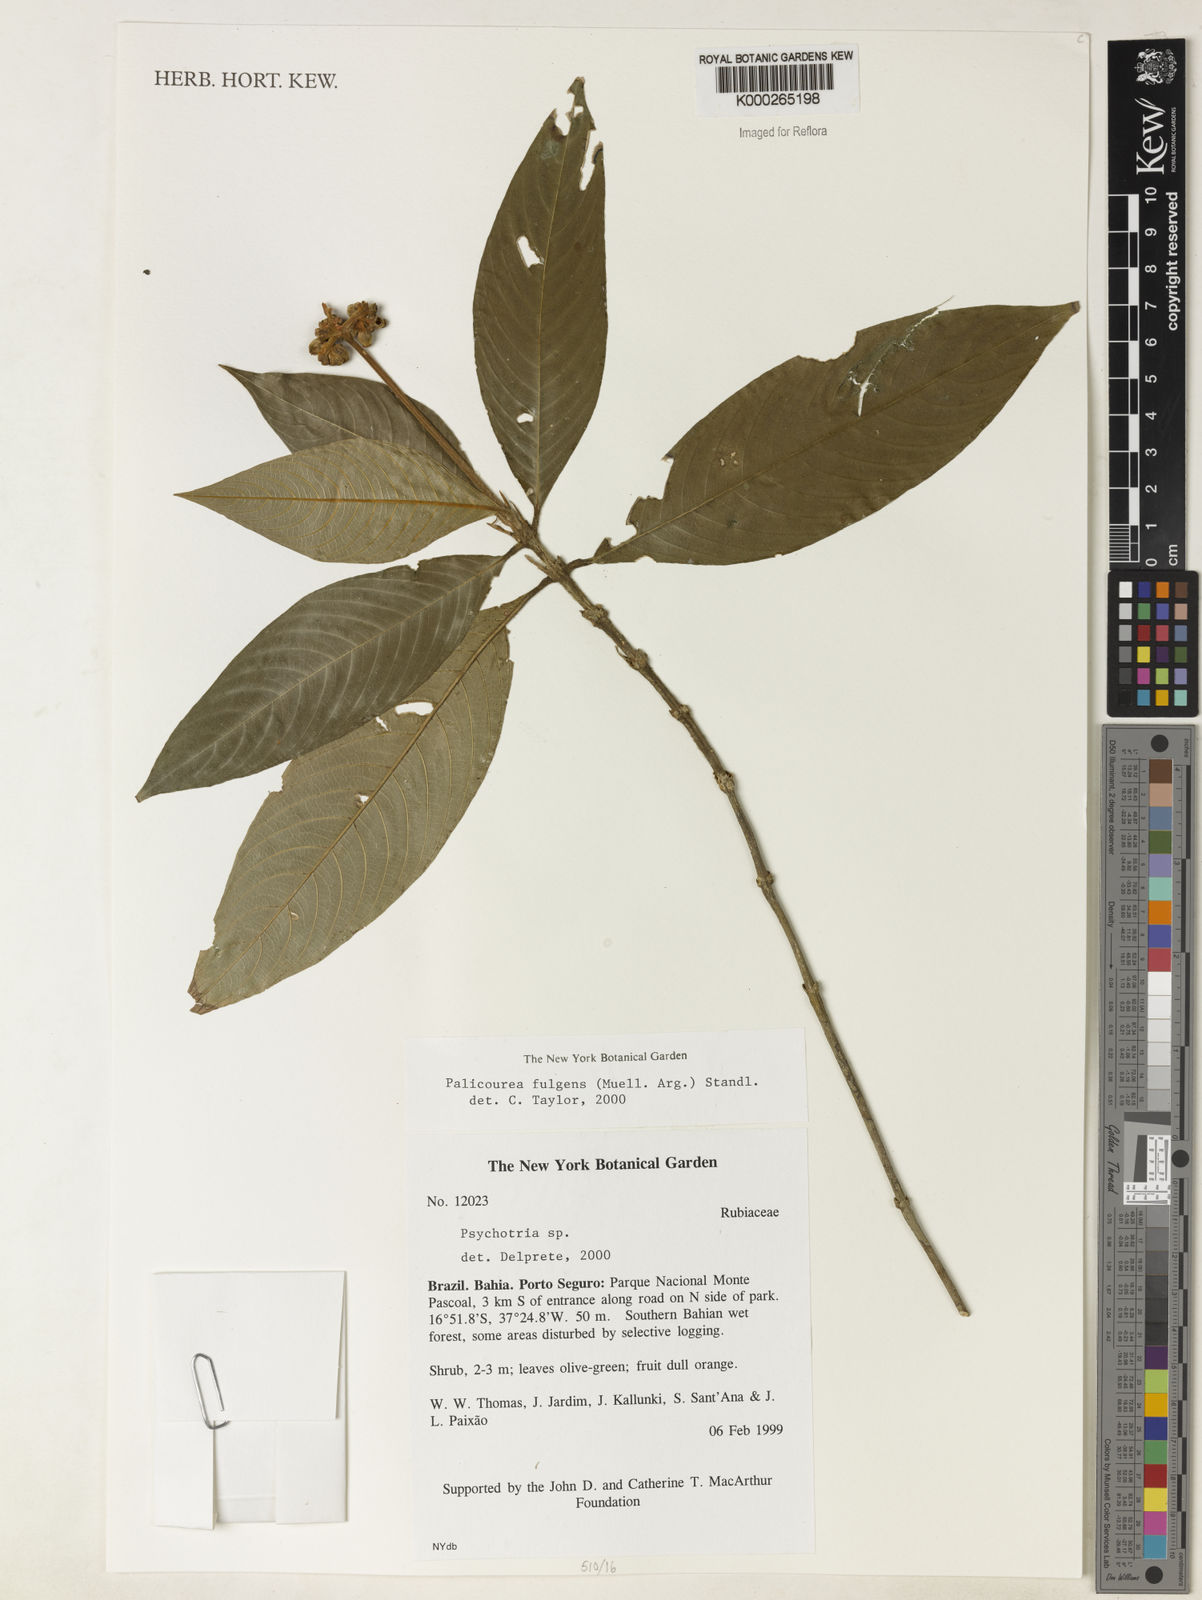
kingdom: Plantae
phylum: Tracheophyta
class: Magnoliopsida
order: Gentianales
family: Rubiaceae
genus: Palicourea
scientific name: Palicourea
